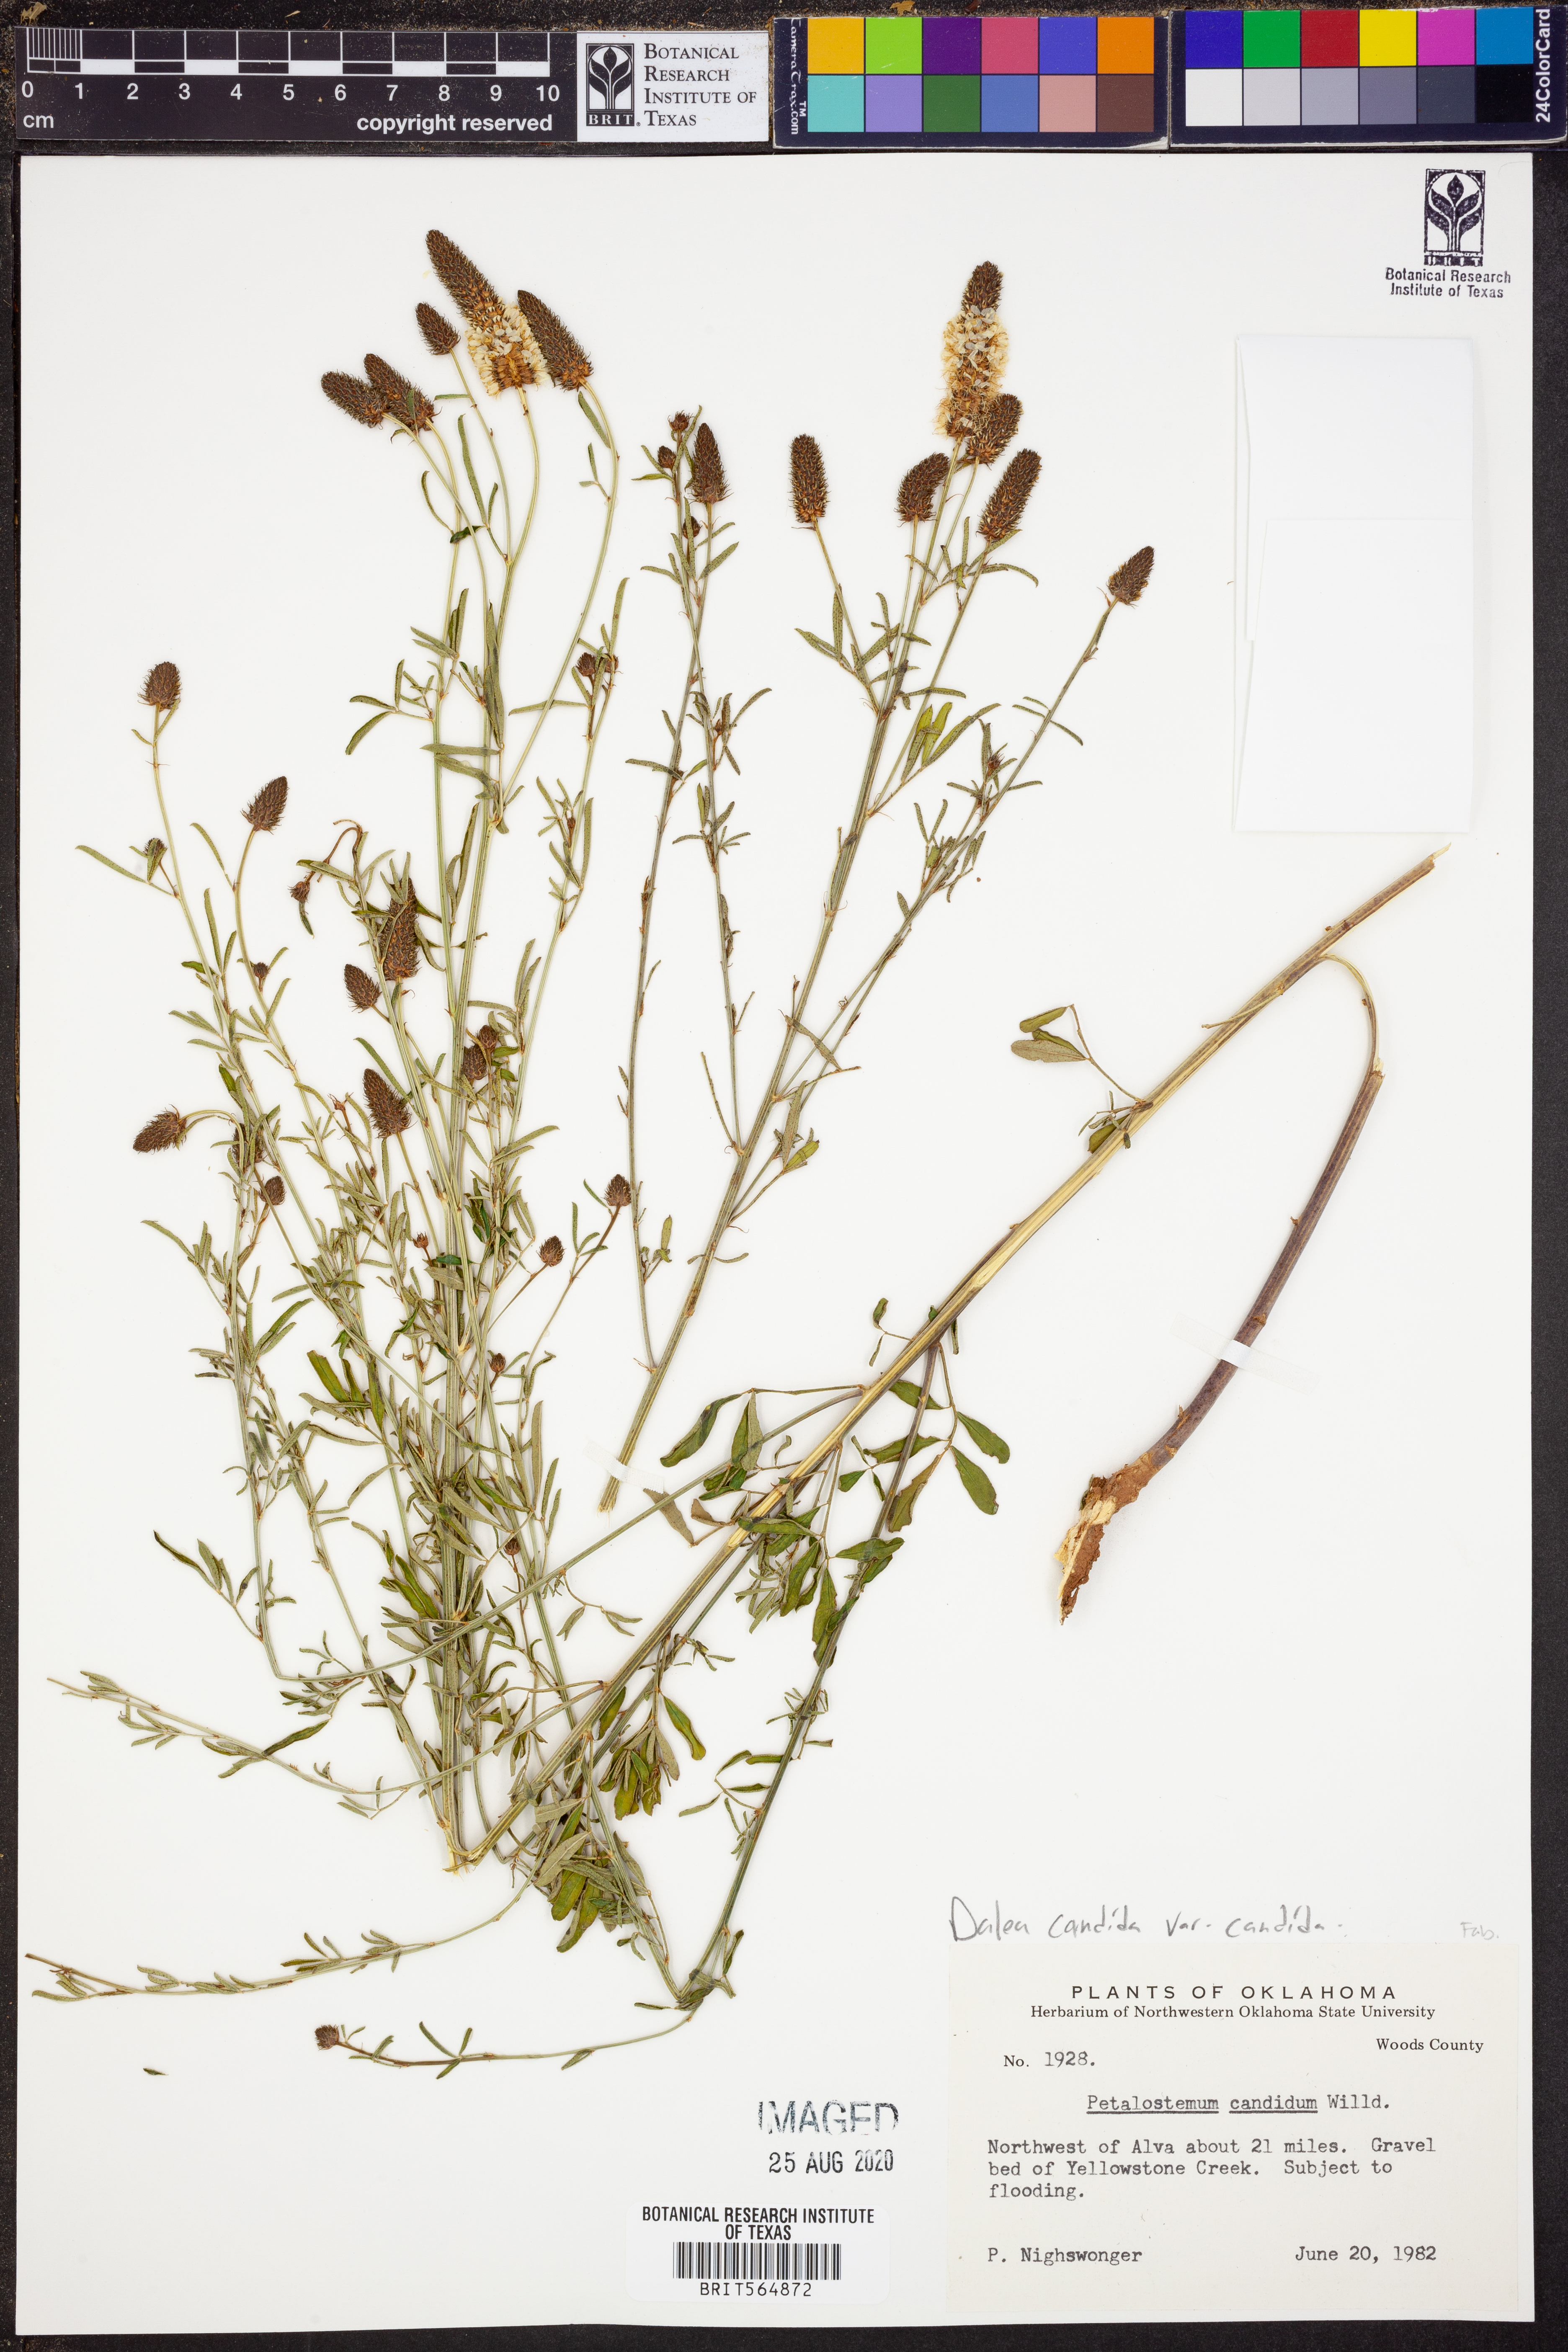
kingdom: Plantae
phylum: Tracheophyta
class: Magnoliopsida
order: Fabales
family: Fabaceae
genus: Dalea
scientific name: Dalea candida
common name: White prairie-clover
